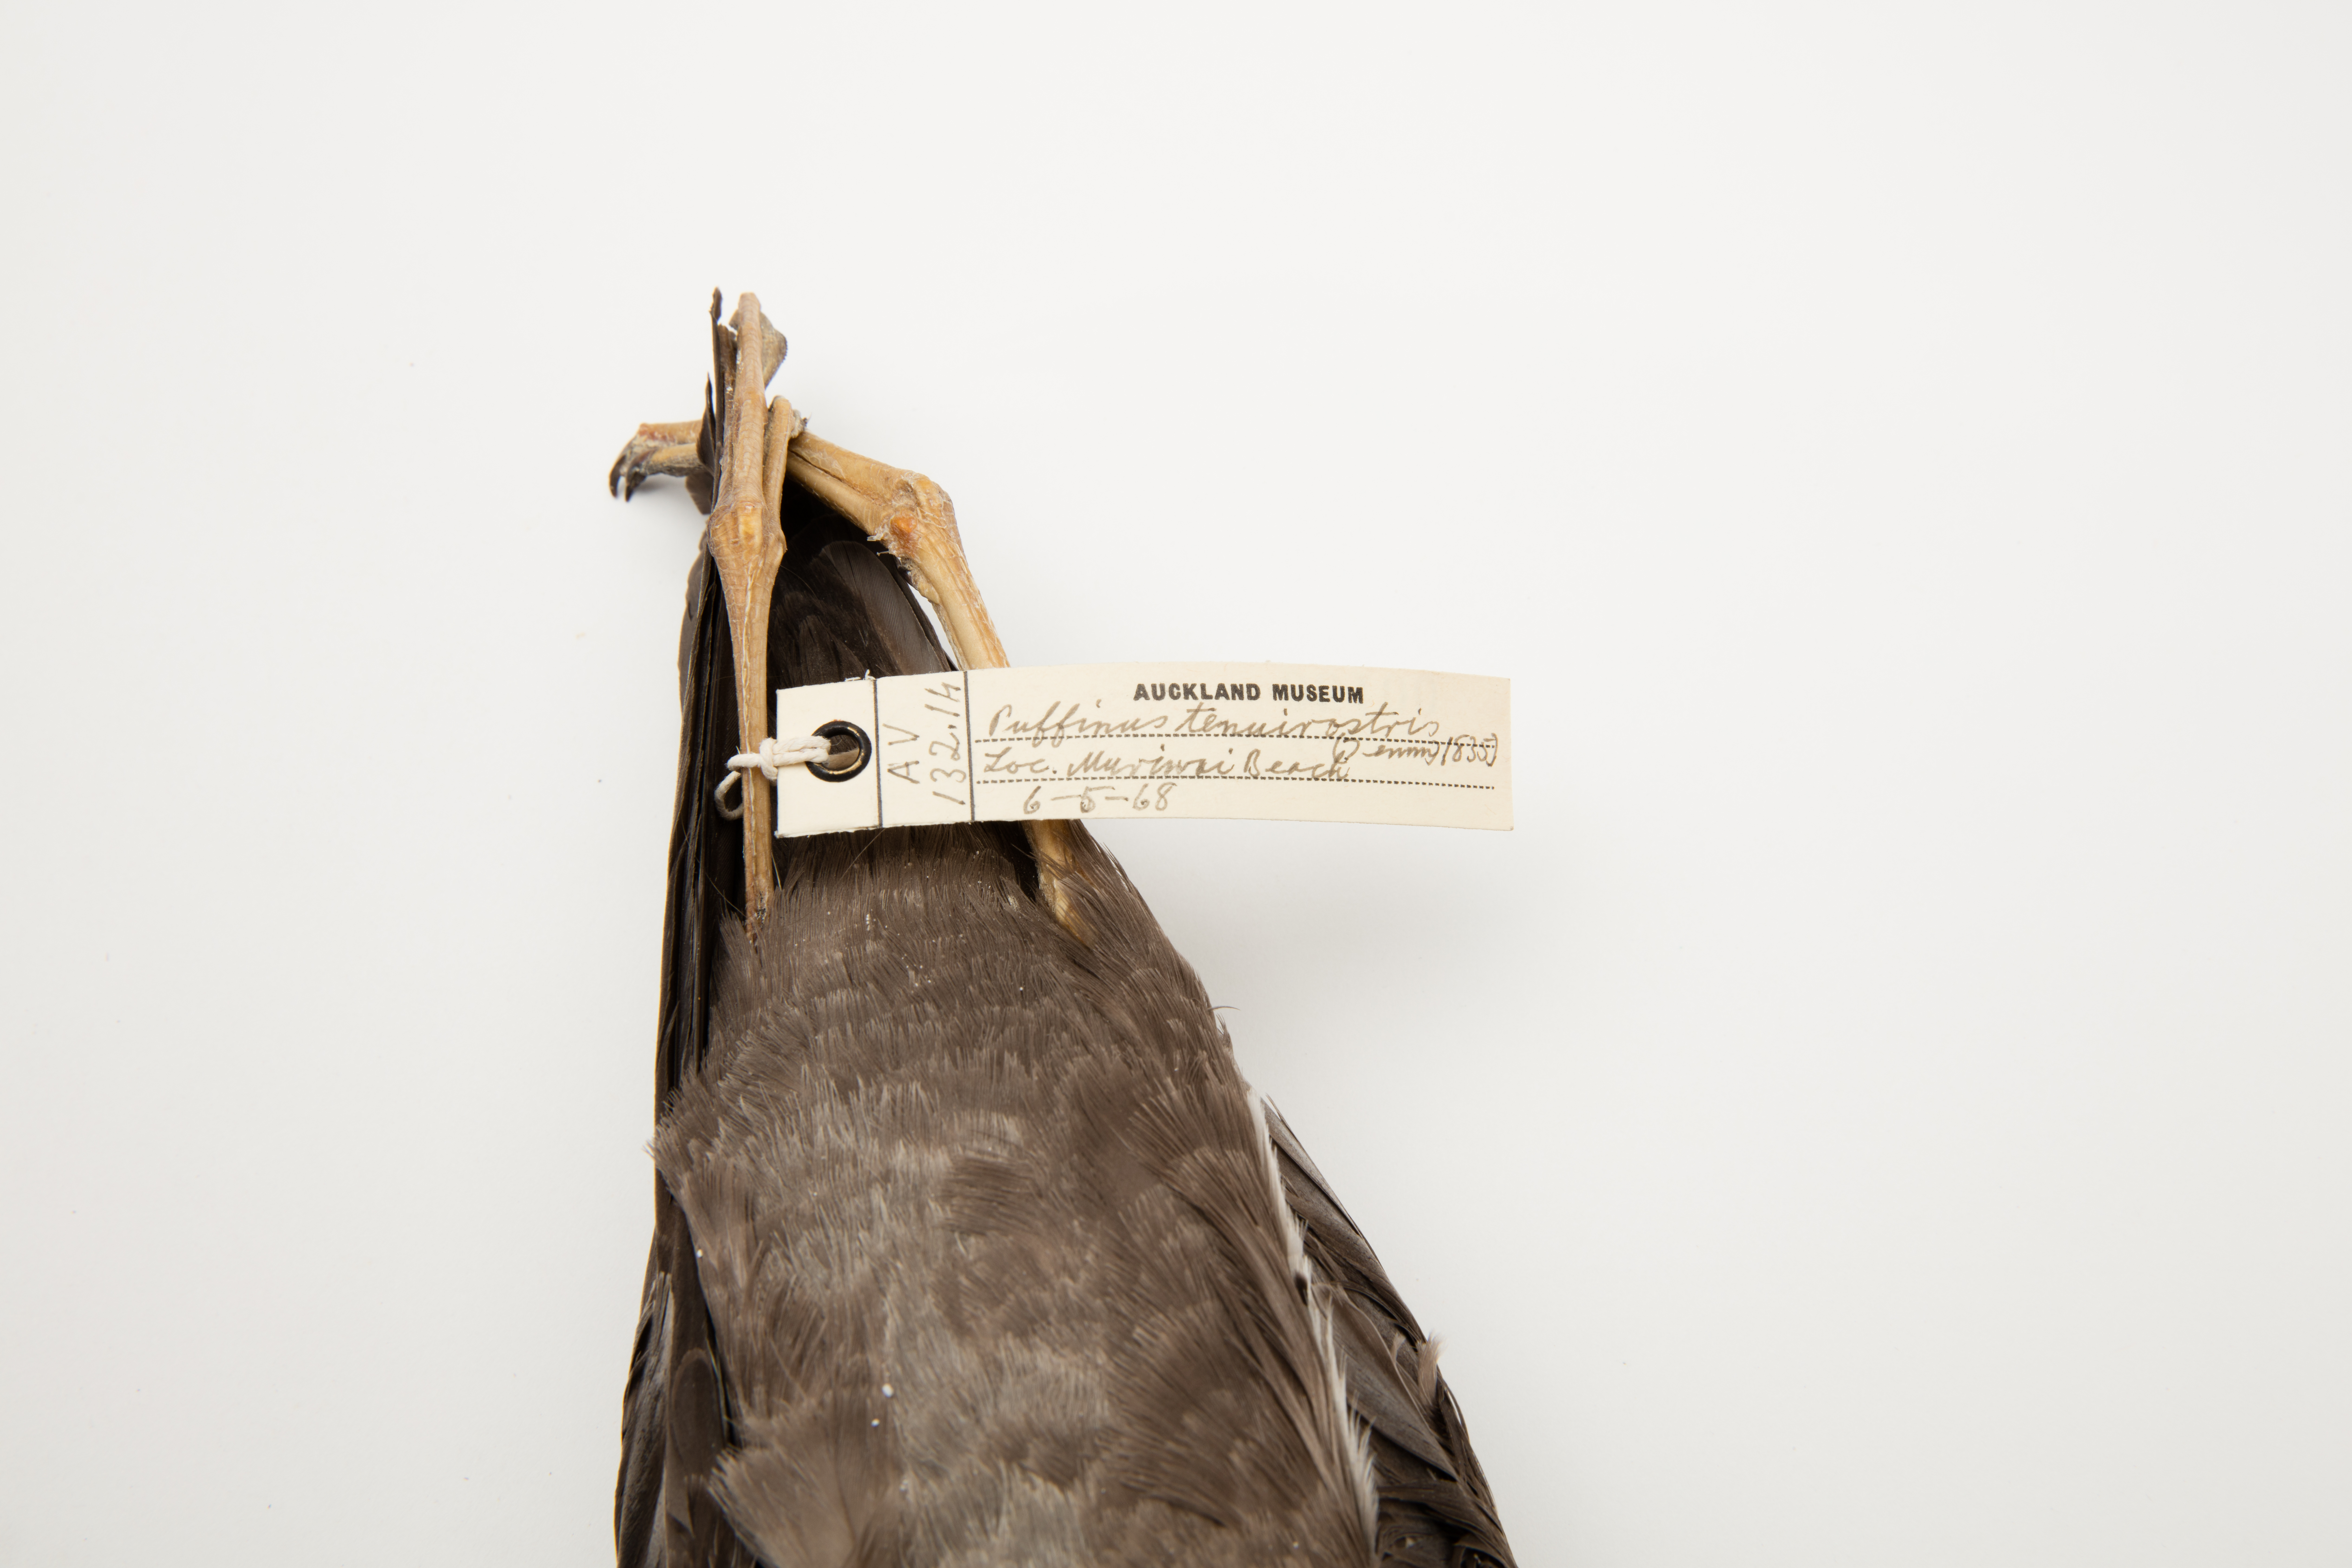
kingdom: Animalia
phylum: Chordata
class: Aves
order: Procellariiformes
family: Procellariidae
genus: Puffinus
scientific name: Puffinus tenuirostris
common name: Short-tailed shearwater
